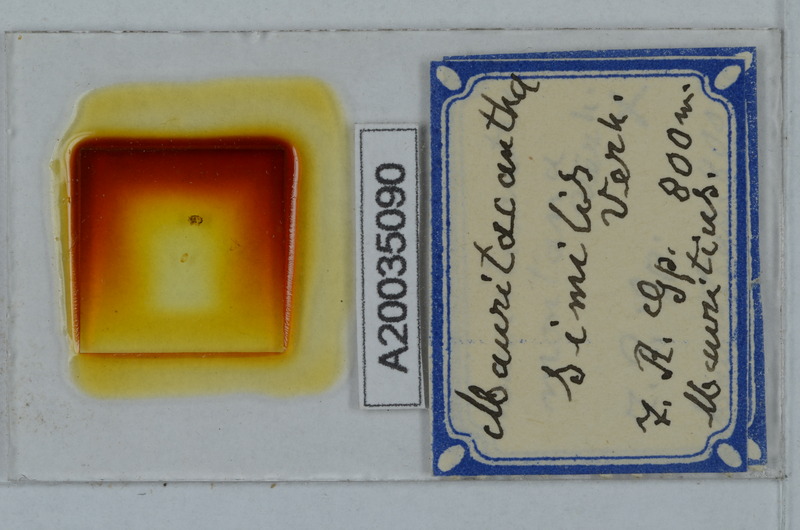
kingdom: Animalia
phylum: Arthropoda
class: Diplopoda
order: Polydesmida
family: Trichopolydesmidae
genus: Mauritacantha
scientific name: Mauritacantha similis
